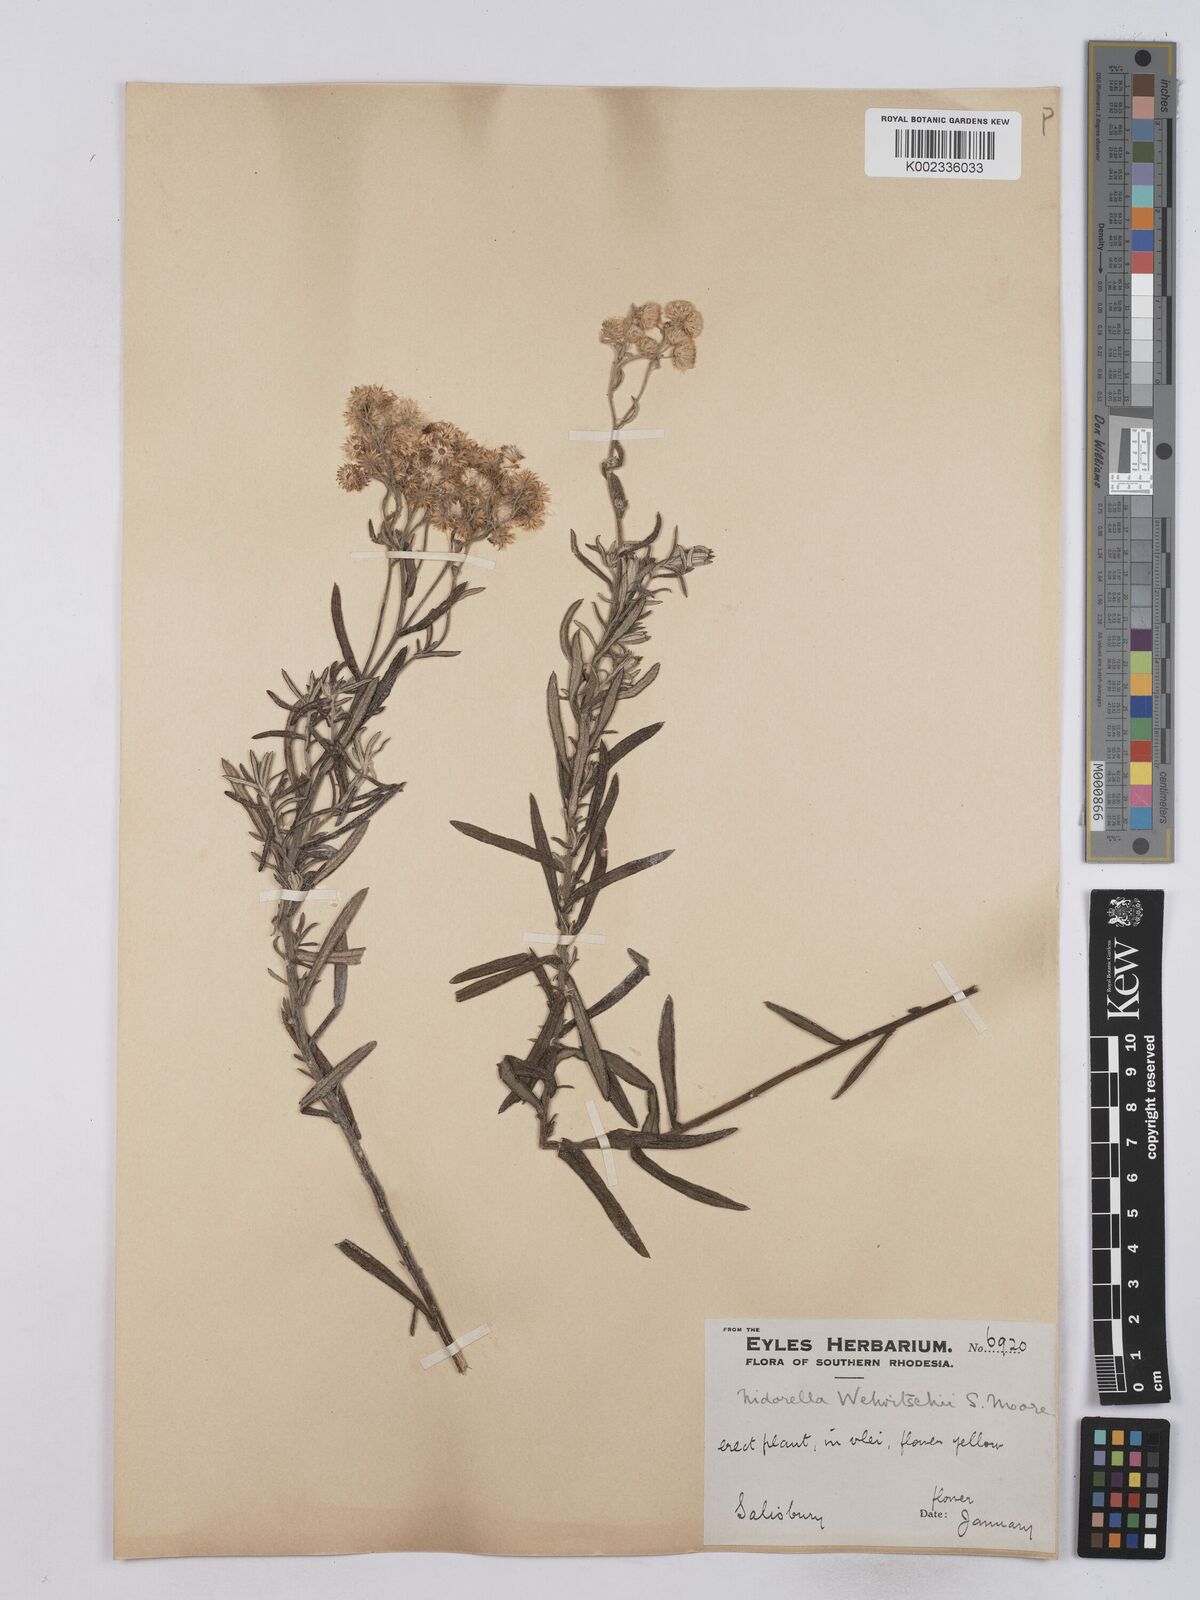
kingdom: Plantae
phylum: Tracheophyta
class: Magnoliopsida
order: Asterales
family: Asteraceae
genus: Nidorella
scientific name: Nidorella welwitschii
